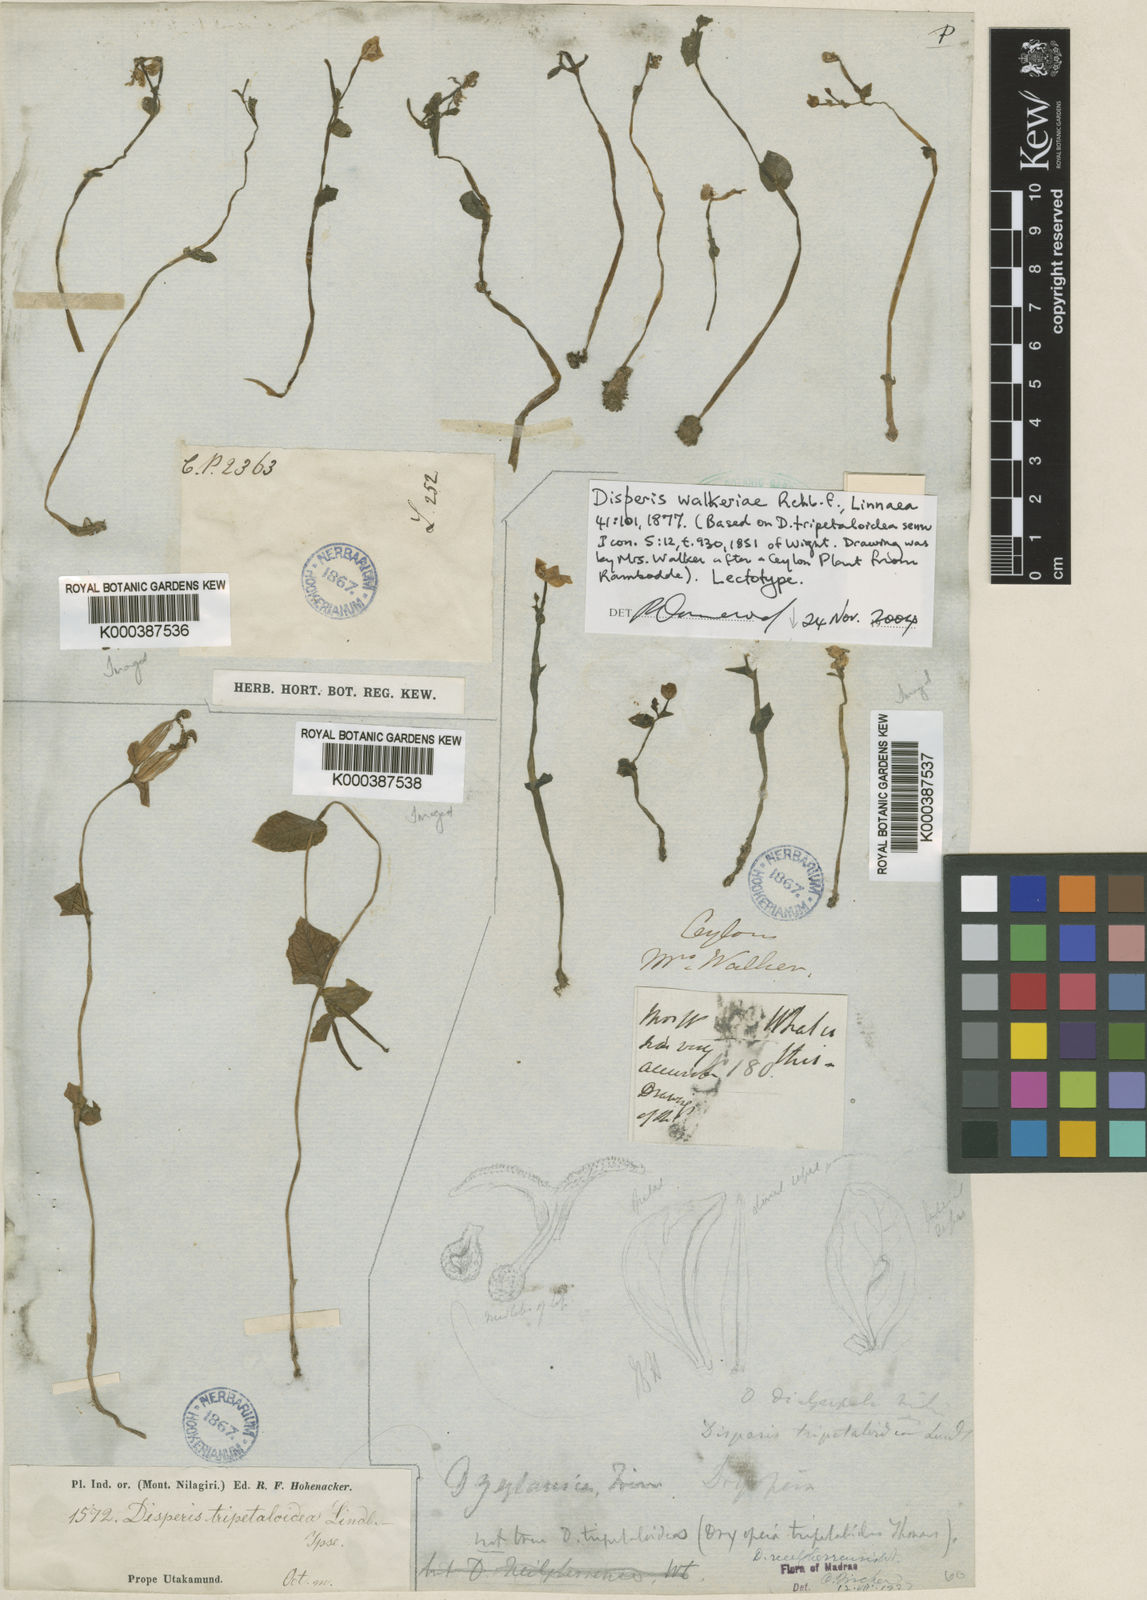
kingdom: Plantae
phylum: Tracheophyta
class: Liliopsida
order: Asparagales
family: Orchidaceae
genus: Disperis
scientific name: Disperis neilgherrensis
